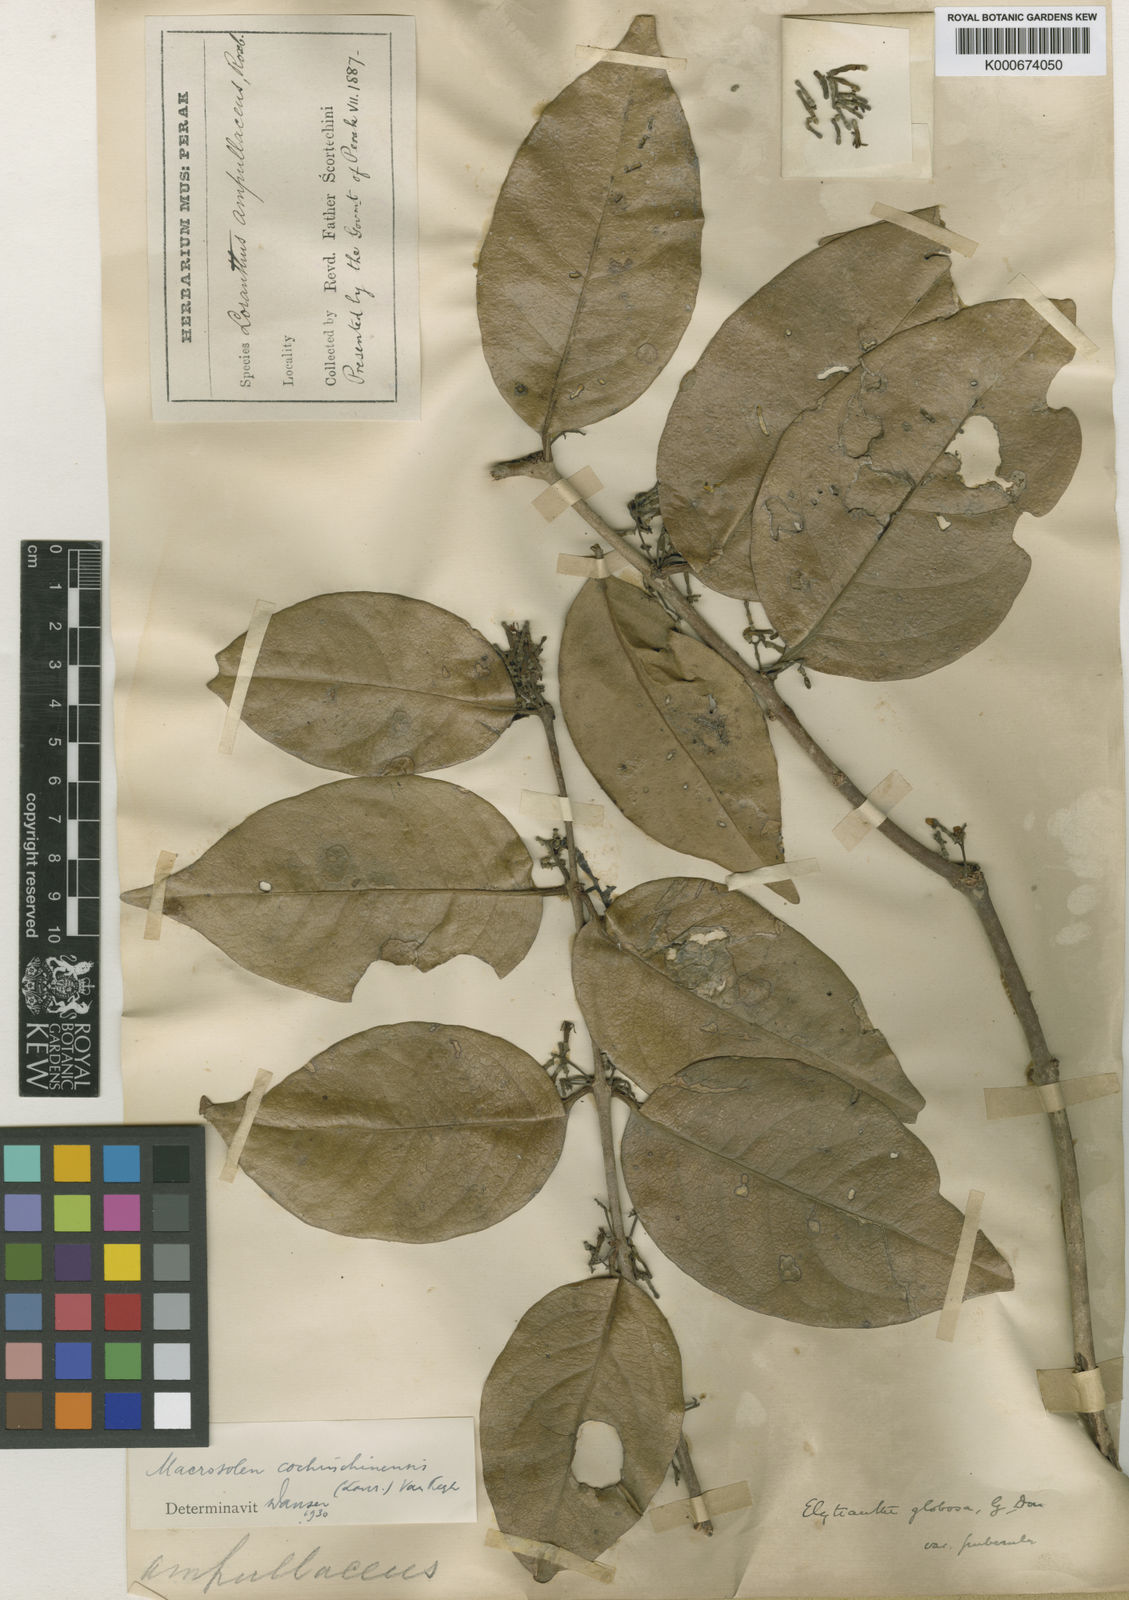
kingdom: Plantae
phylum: Tracheophyta
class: Magnoliopsida
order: Santalales
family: Loranthaceae
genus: Macrosolen
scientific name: Macrosolen cochinchinensis
